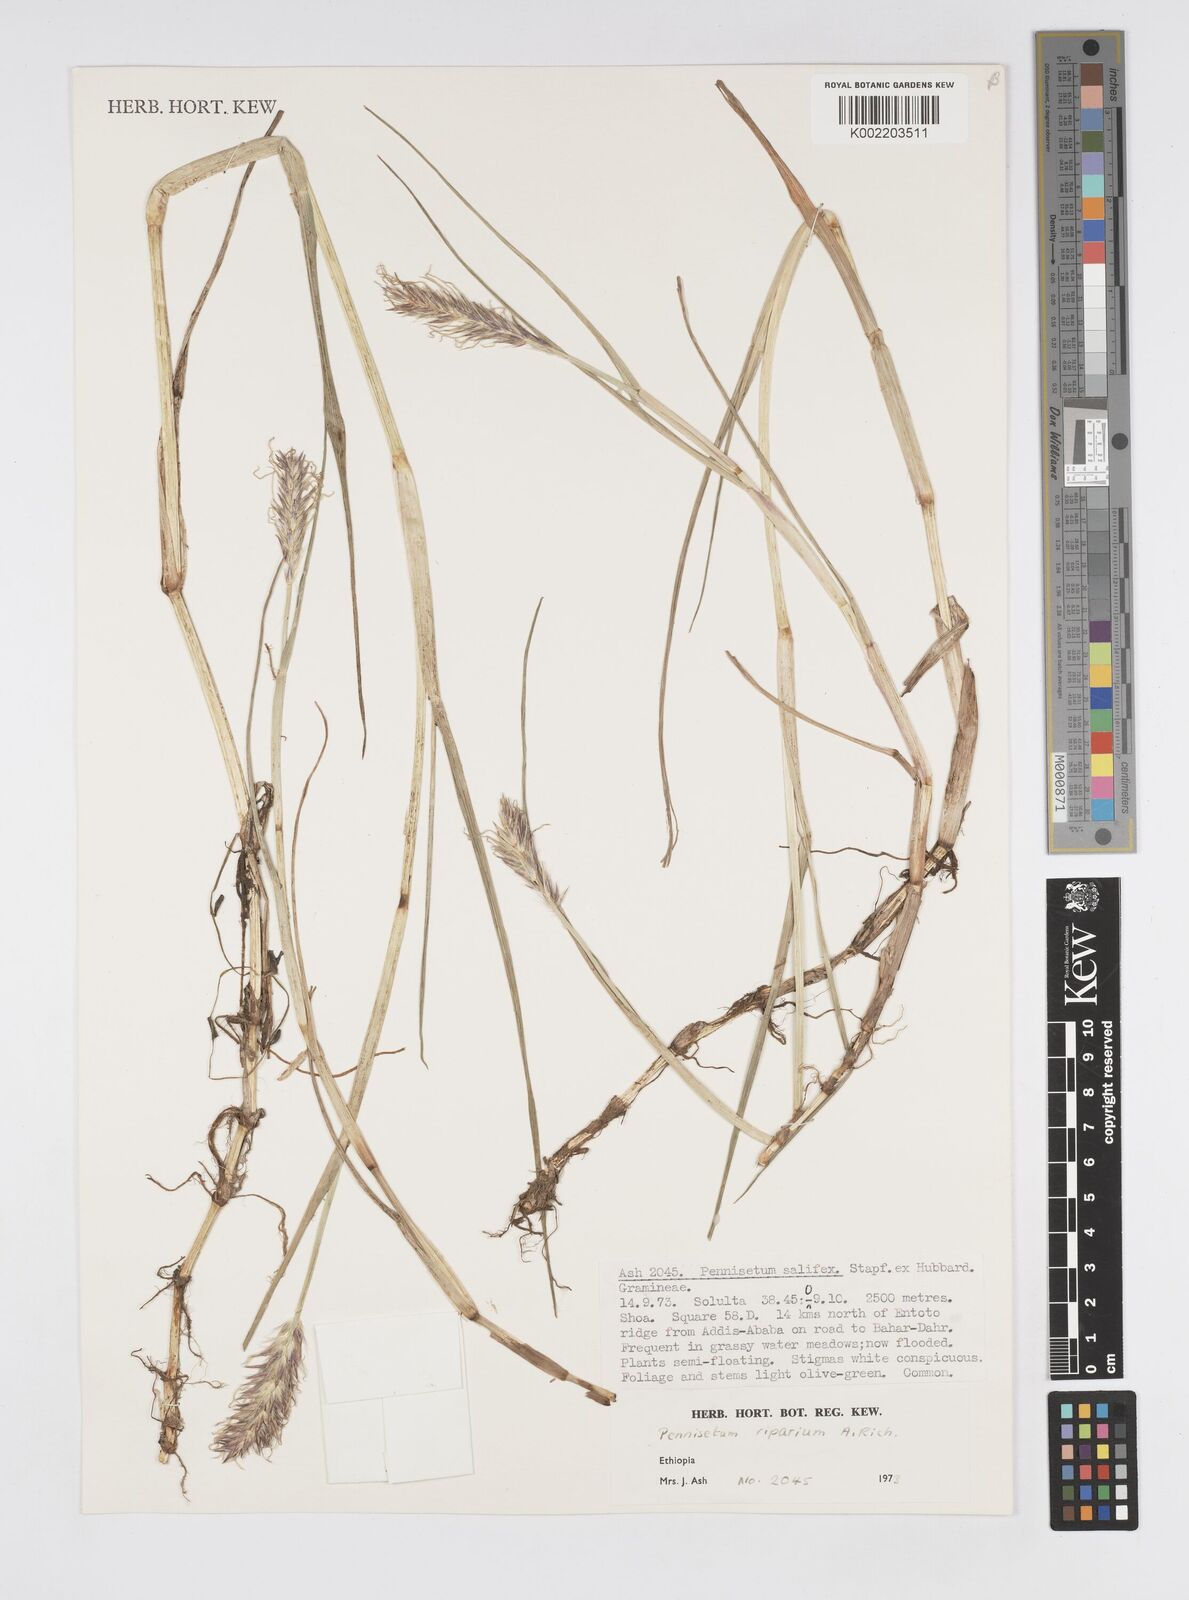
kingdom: Plantae
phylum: Tracheophyta
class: Liliopsida
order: Poales
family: Poaceae
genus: Cenchrus
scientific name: Cenchrus riparius
